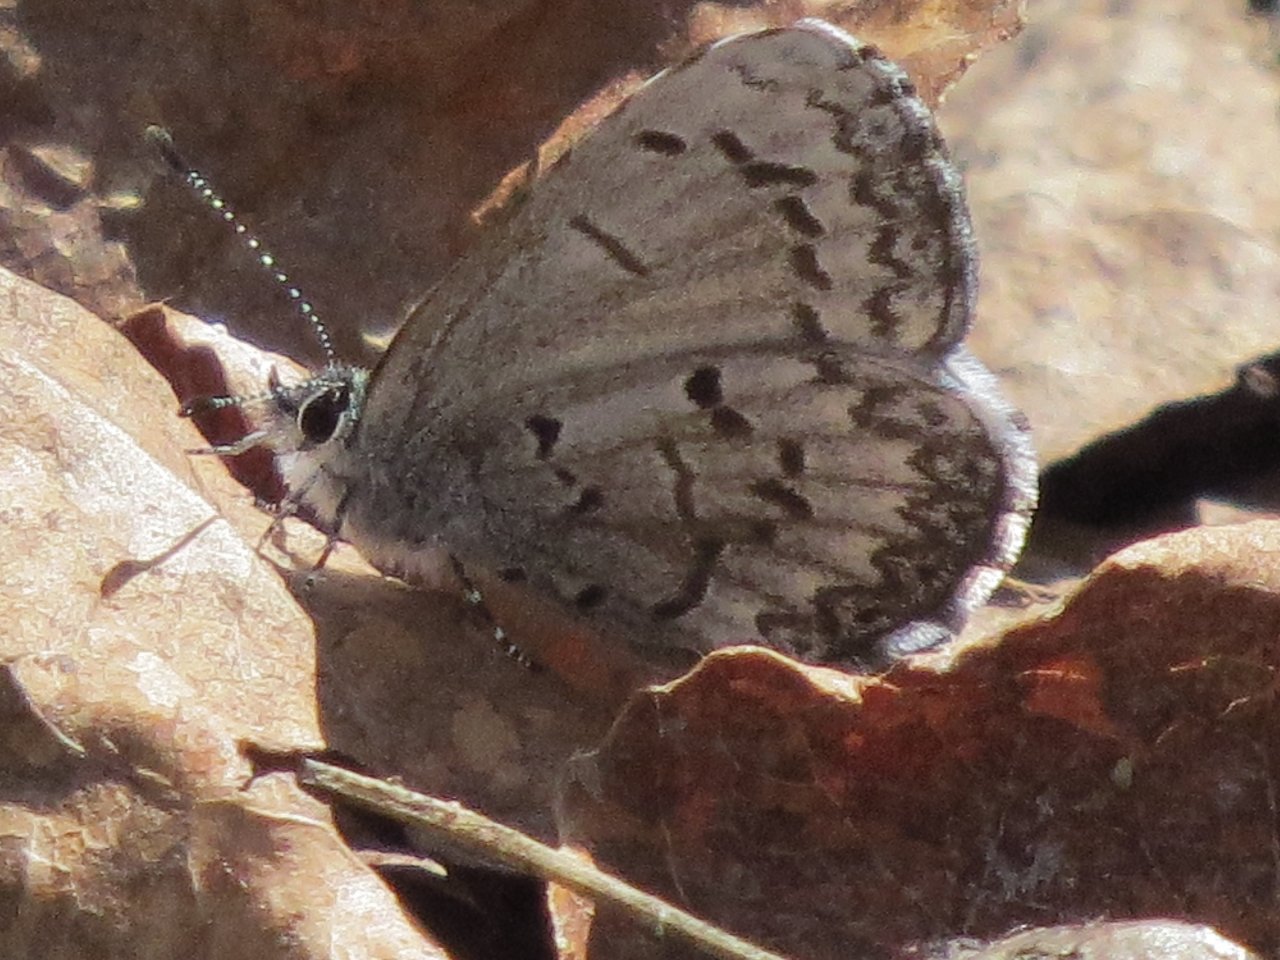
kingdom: Animalia
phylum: Arthropoda
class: Insecta
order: Lepidoptera
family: Lycaenidae
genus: Celastrina
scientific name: Celastrina lucia
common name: Northern Spring Azure
